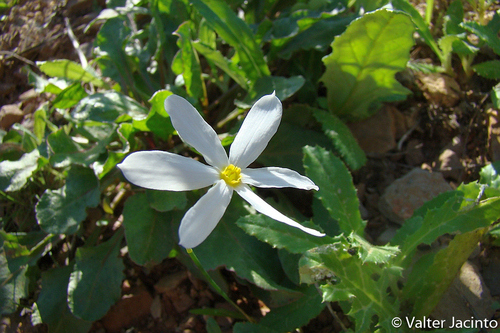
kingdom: Plantae
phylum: Tracheophyta
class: Liliopsida
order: Asparagales
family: Amaryllidaceae
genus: Narcissus
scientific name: Narcissus serotinus
